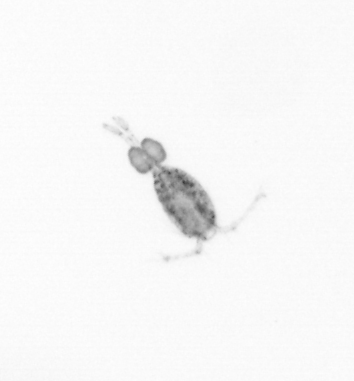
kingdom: Animalia
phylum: Arthropoda
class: Copepoda
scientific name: Copepoda
